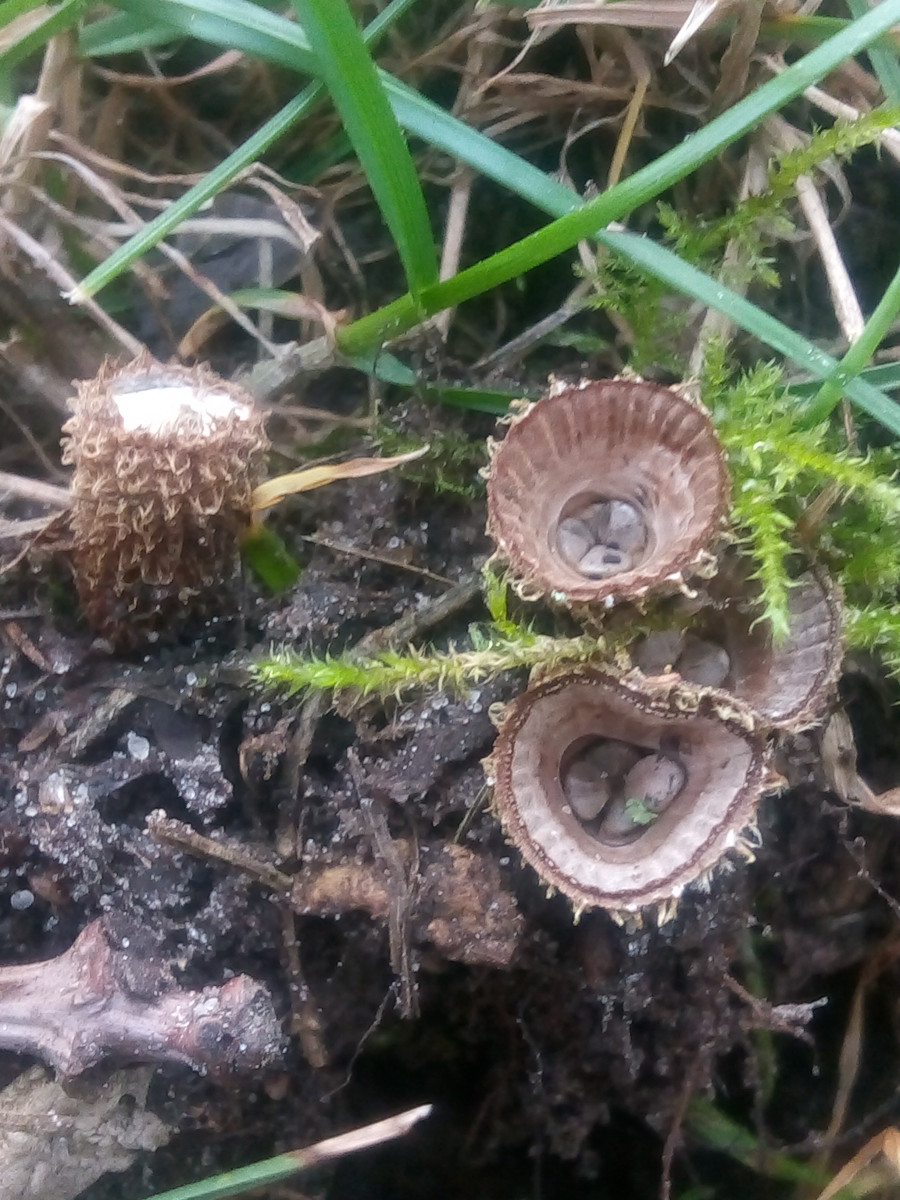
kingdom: Fungi
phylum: Basidiomycota
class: Agaricomycetes
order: Agaricales
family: Agaricaceae
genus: Cyathus
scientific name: Cyathus striatus
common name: stribet redesvamp
